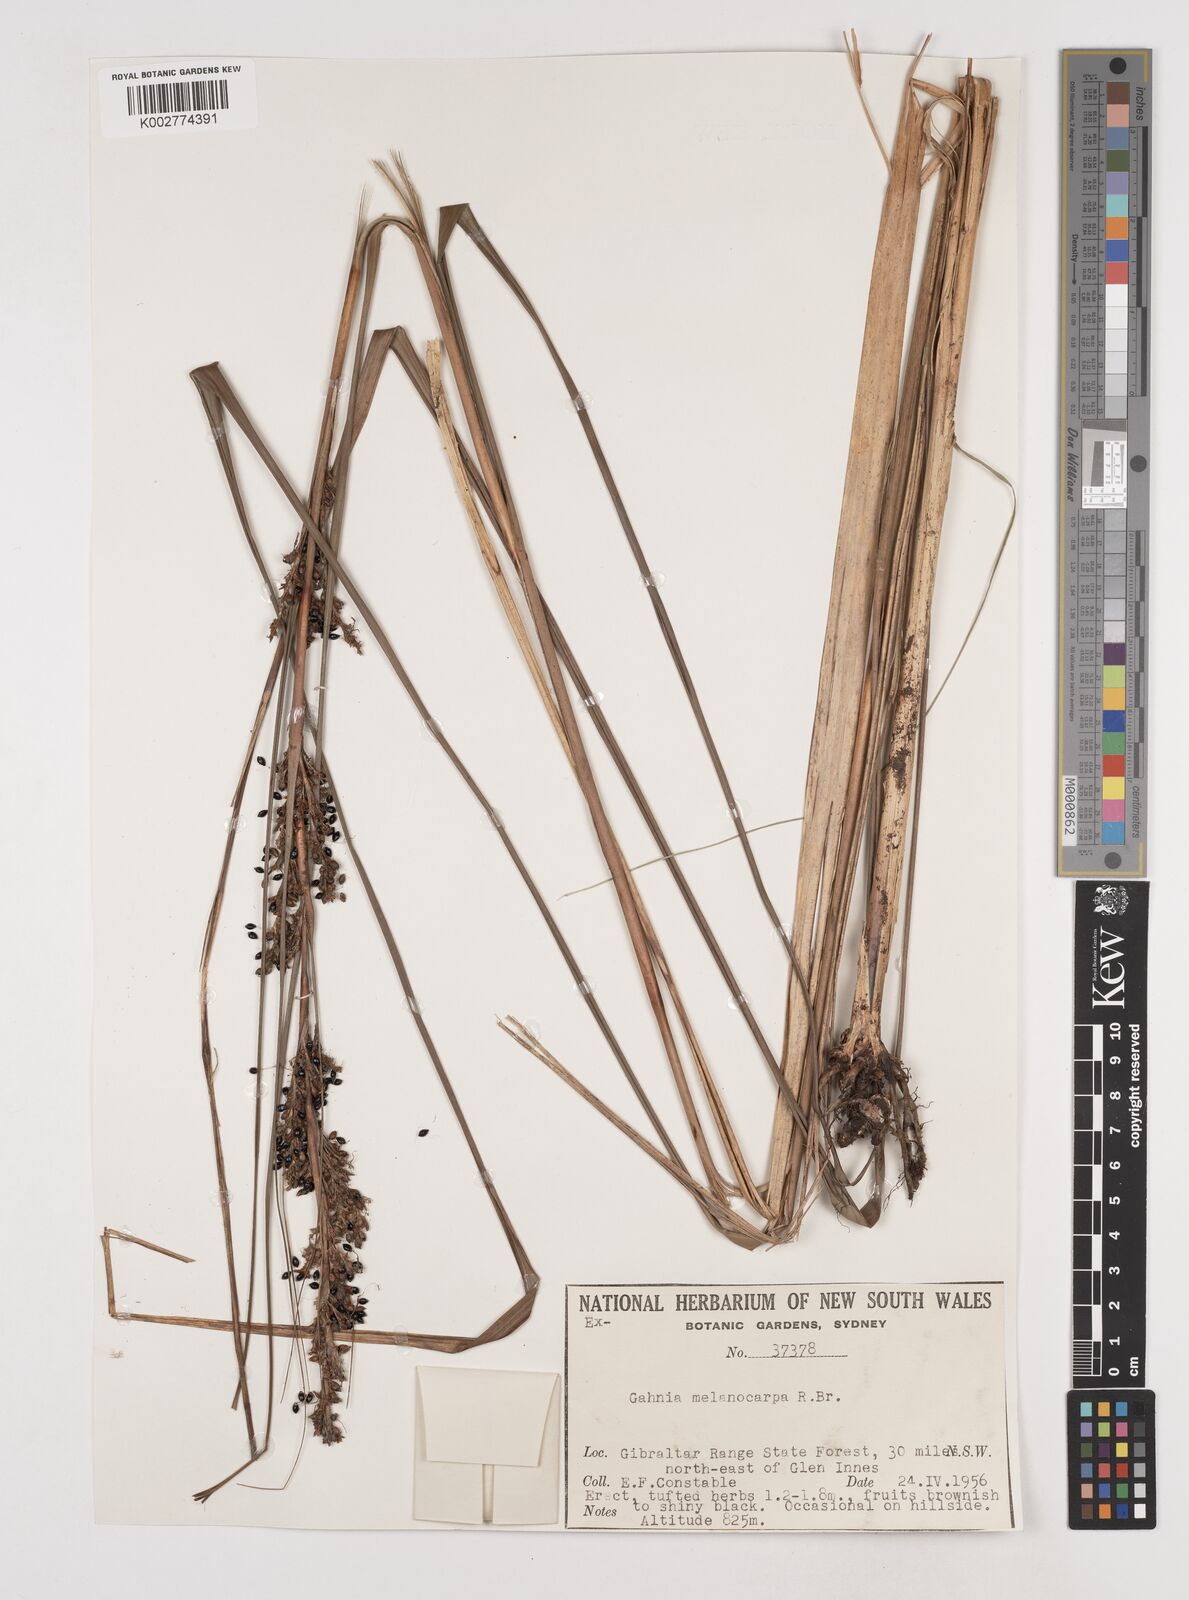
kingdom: Plantae
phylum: Tracheophyta
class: Liliopsida
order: Poales
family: Cyperaceae
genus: Gahnia
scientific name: Gahnia melanocarpa
